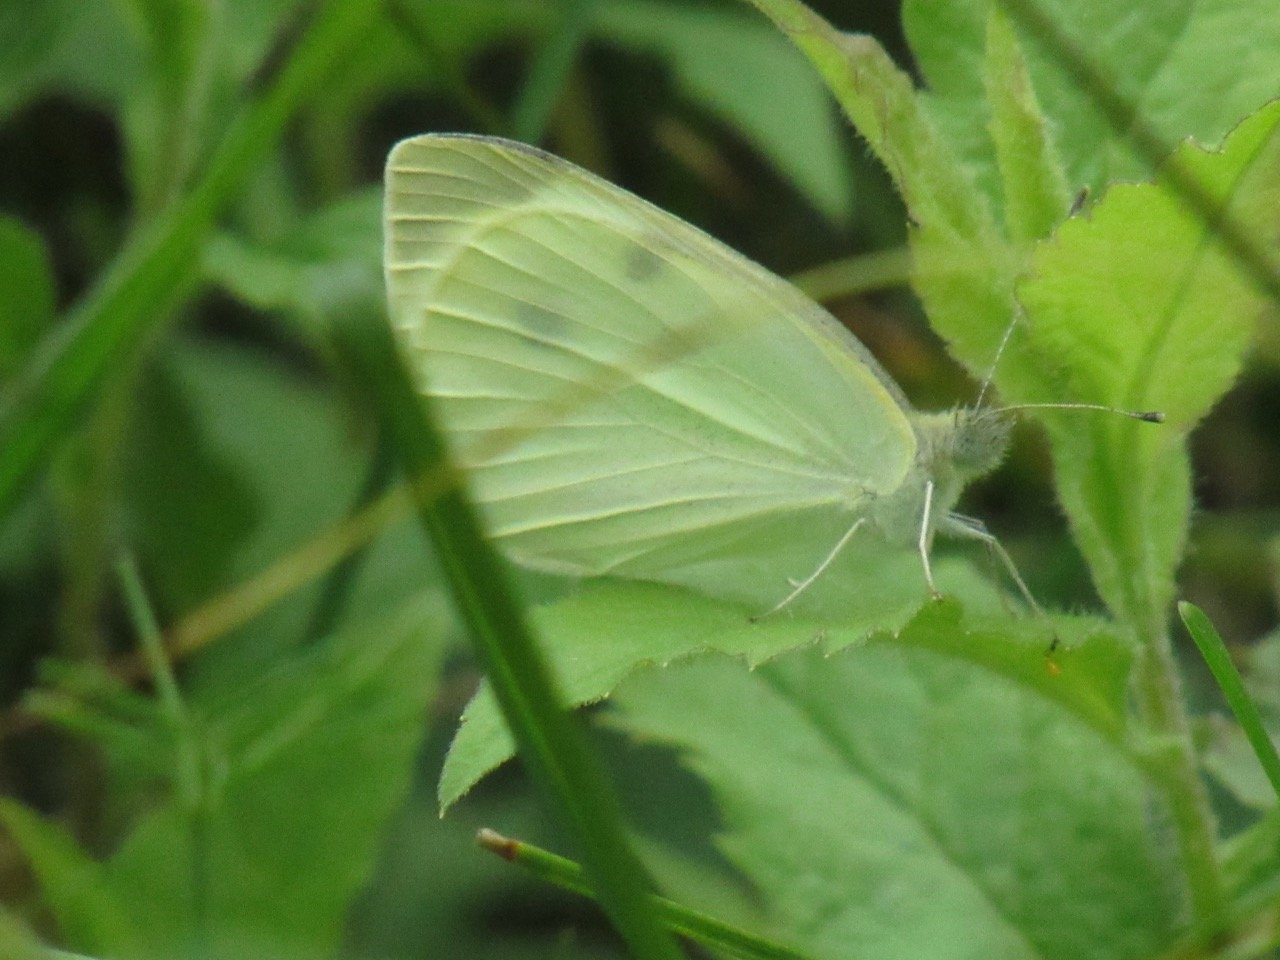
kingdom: Animalia
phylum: Arthropoda
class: Insecta
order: Lepidoptera
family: Pieridae
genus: Pieris
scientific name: Pieris rapae
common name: Cabbage White
